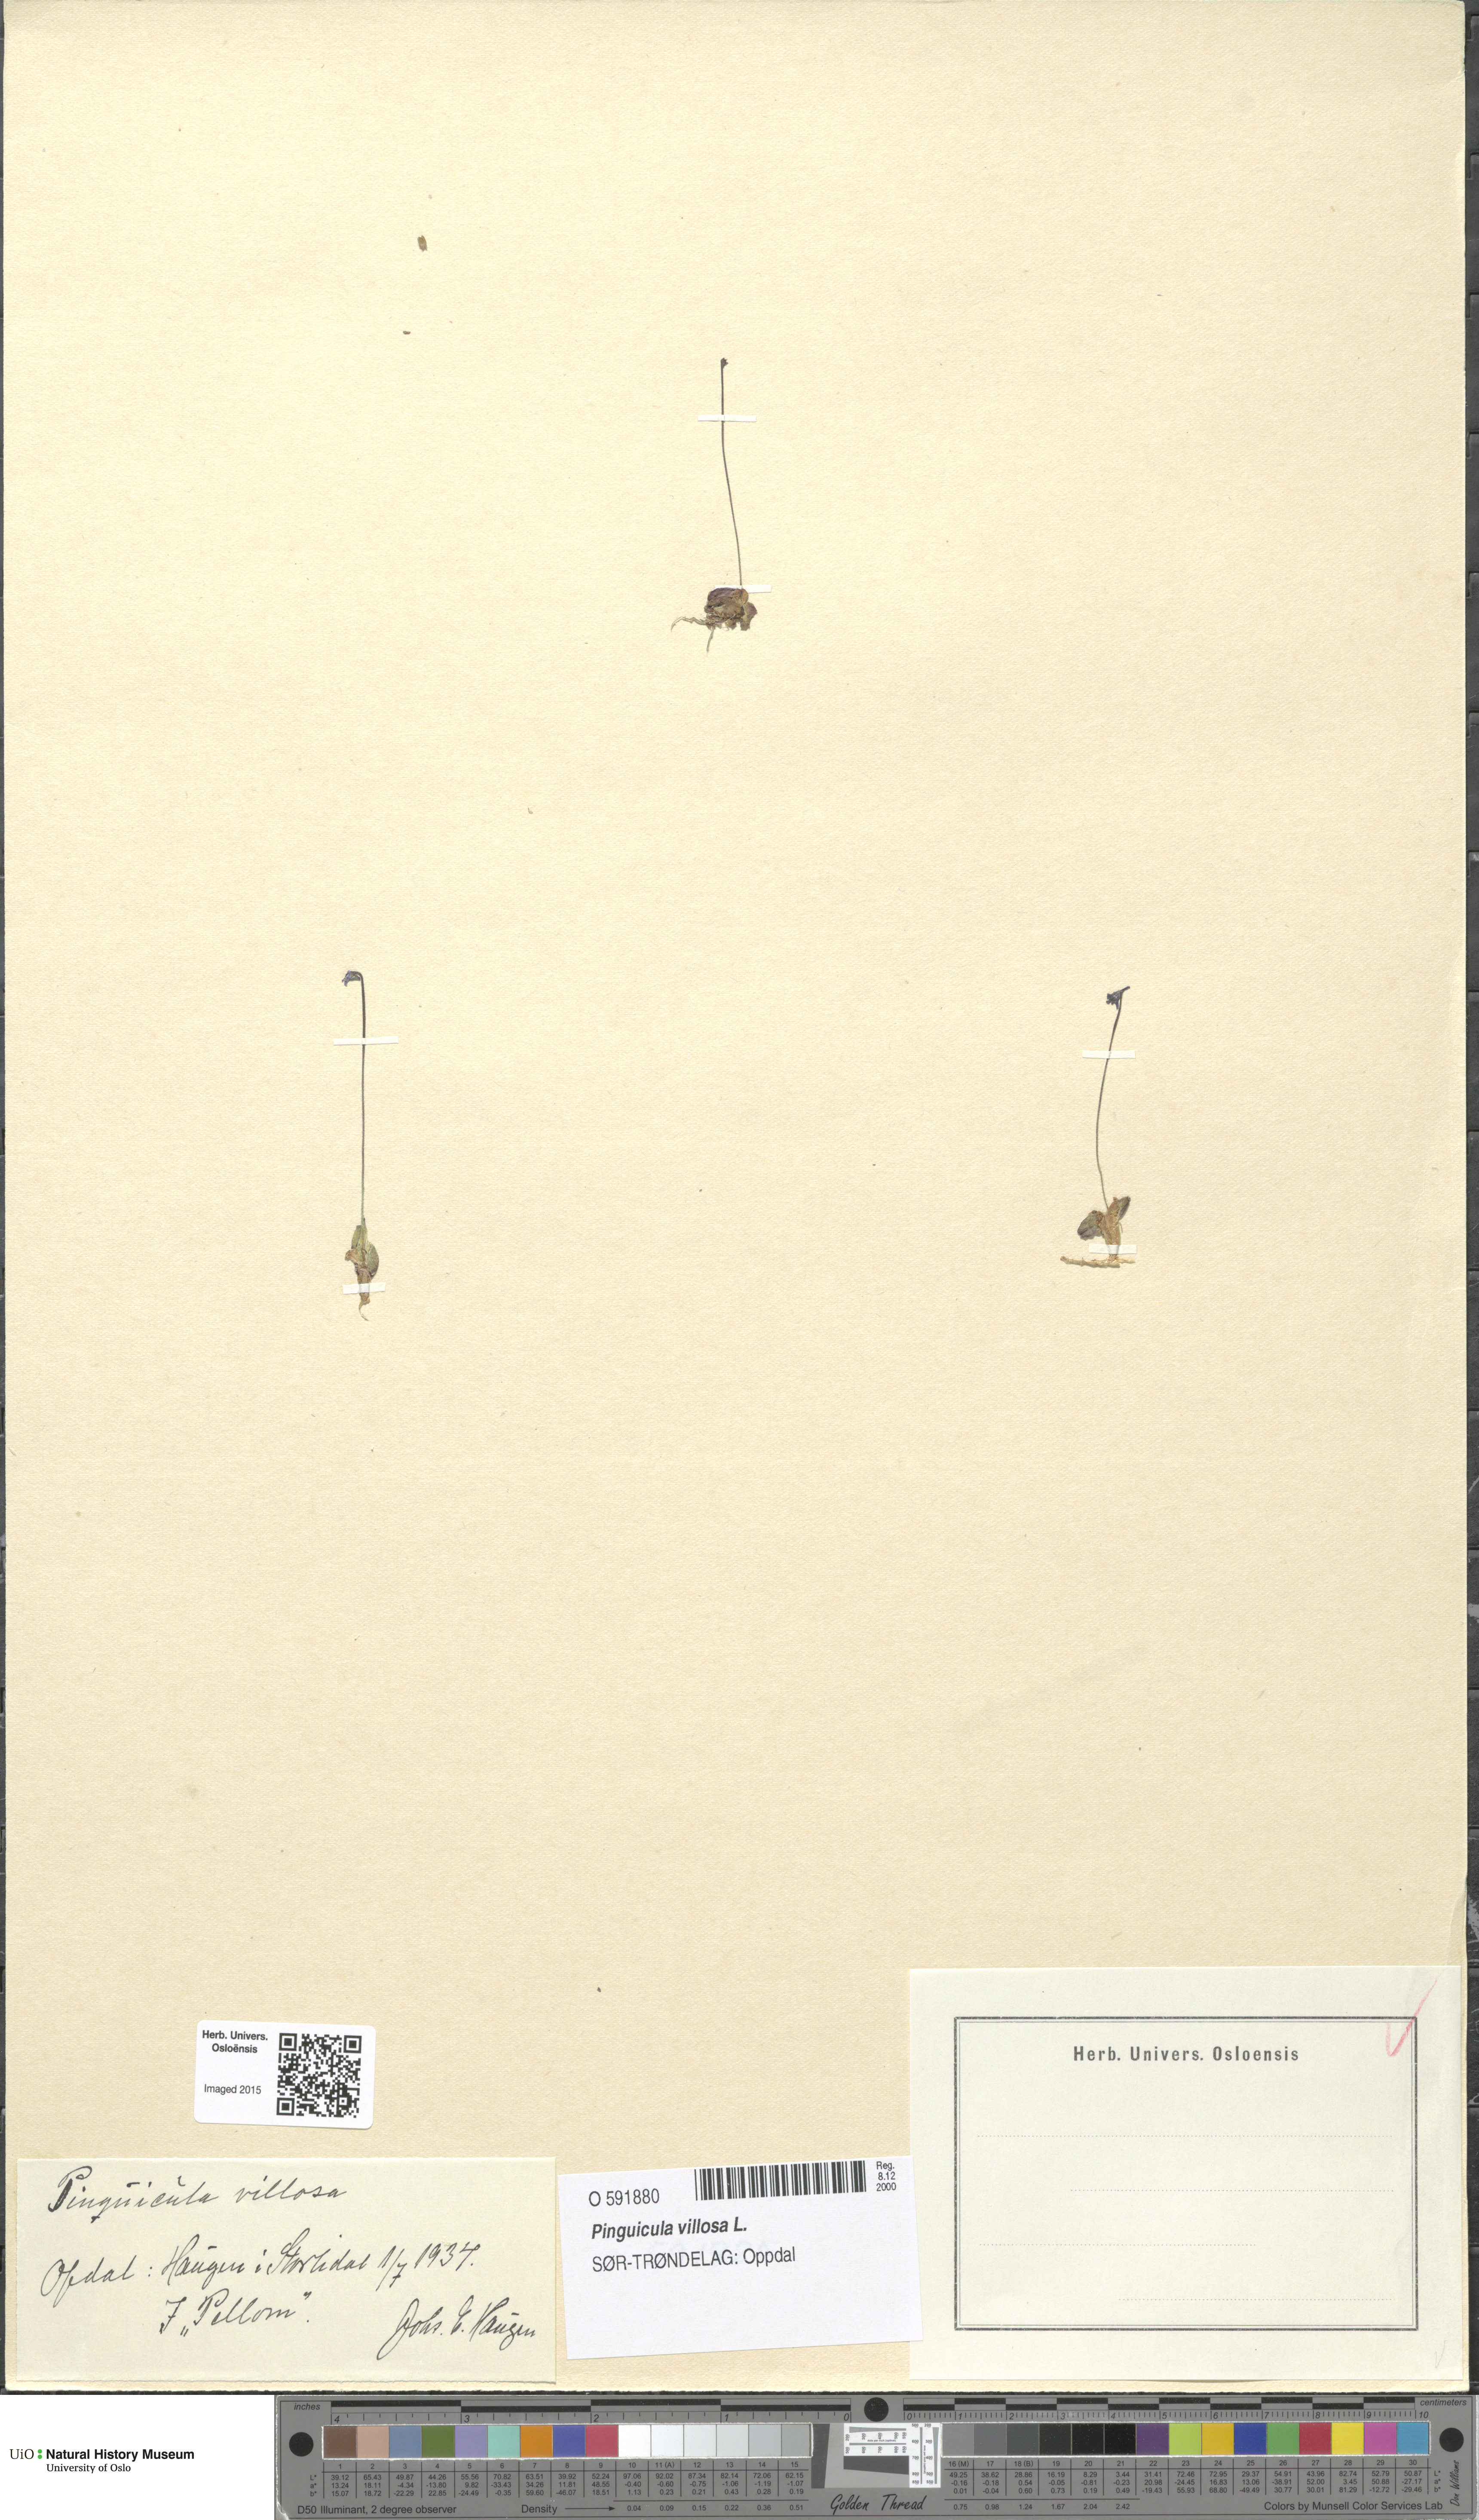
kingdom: Plantae
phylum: Tracheophyta
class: Magnoliopsida
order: Lamiales
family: Lentibulariaceae
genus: Pinguicula
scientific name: Pinguicula villosa
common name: Hairy butterwort
